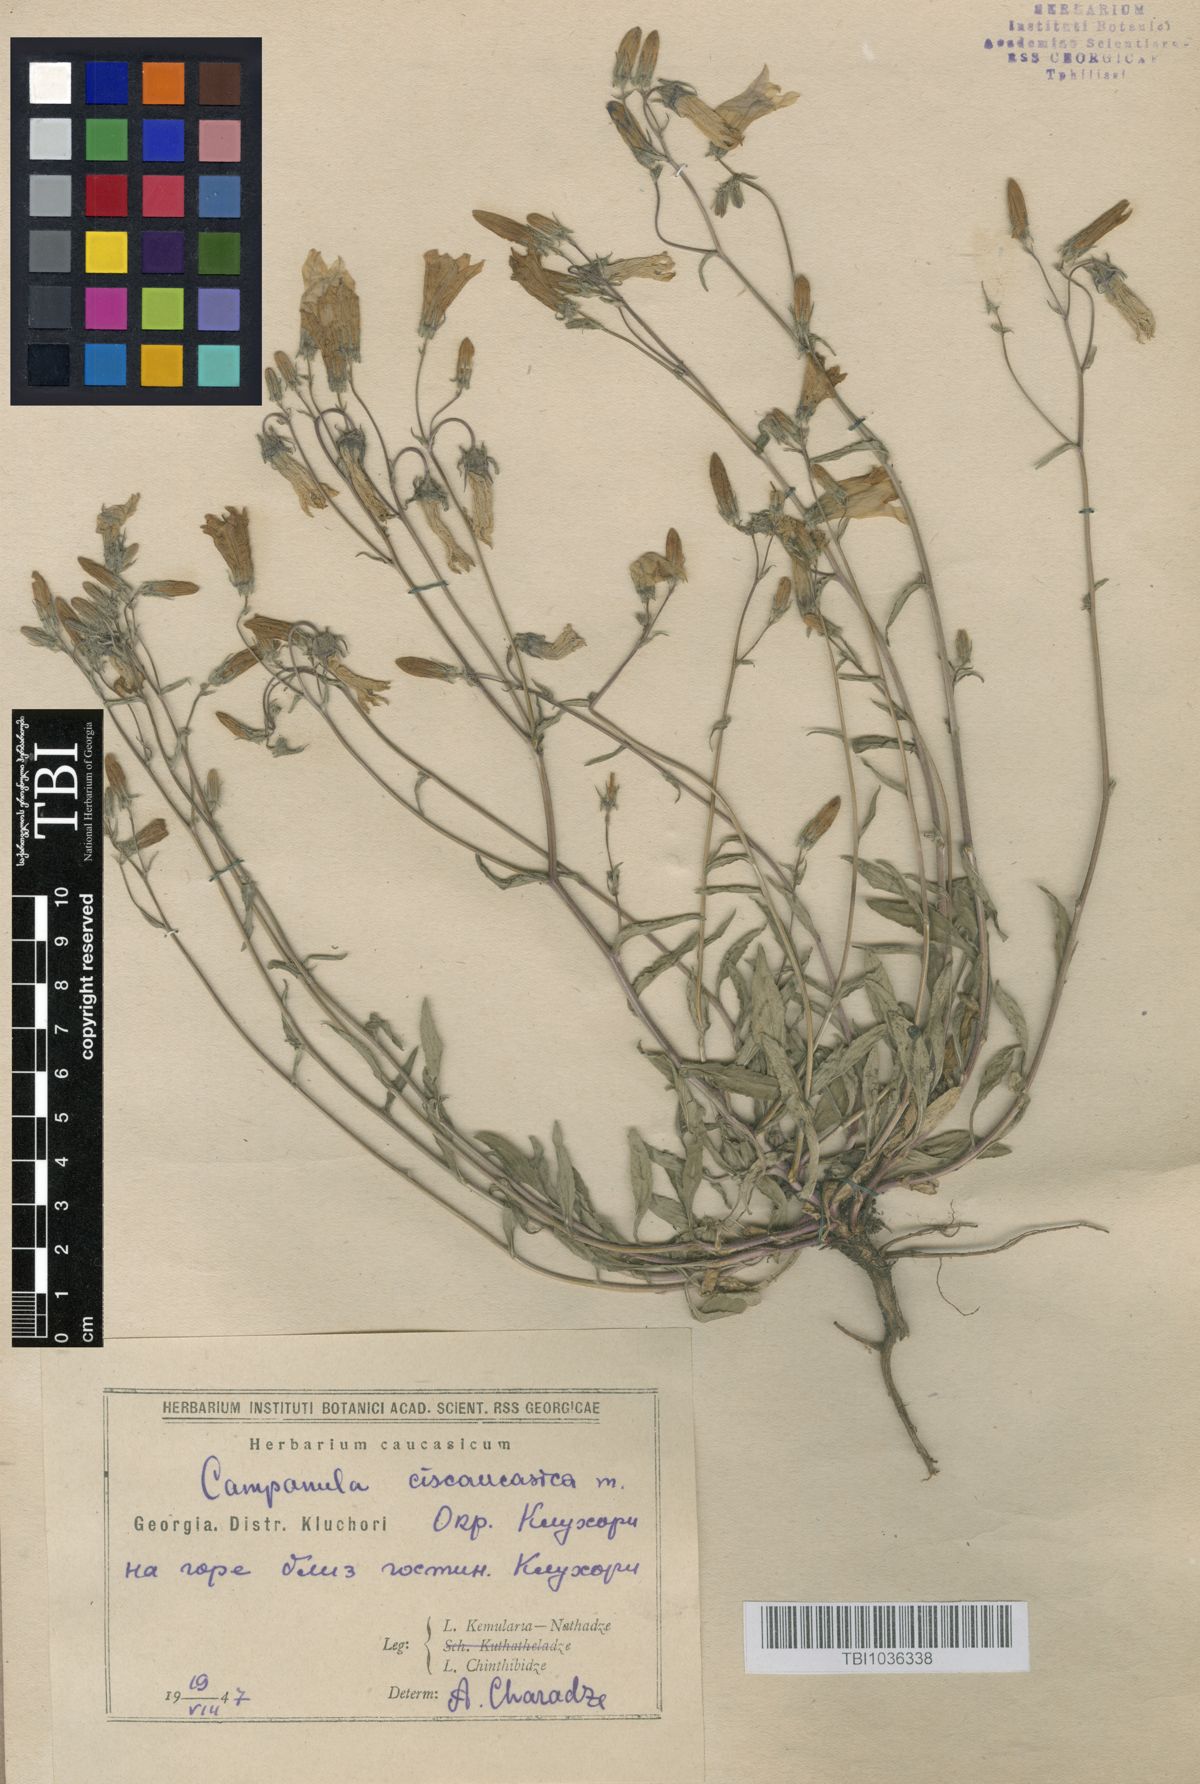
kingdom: Plantae
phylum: Tracheophyta
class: Magnoliopsida
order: Asterales
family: Campanulaceae
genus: Campanula
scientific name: Campanula sibirica
